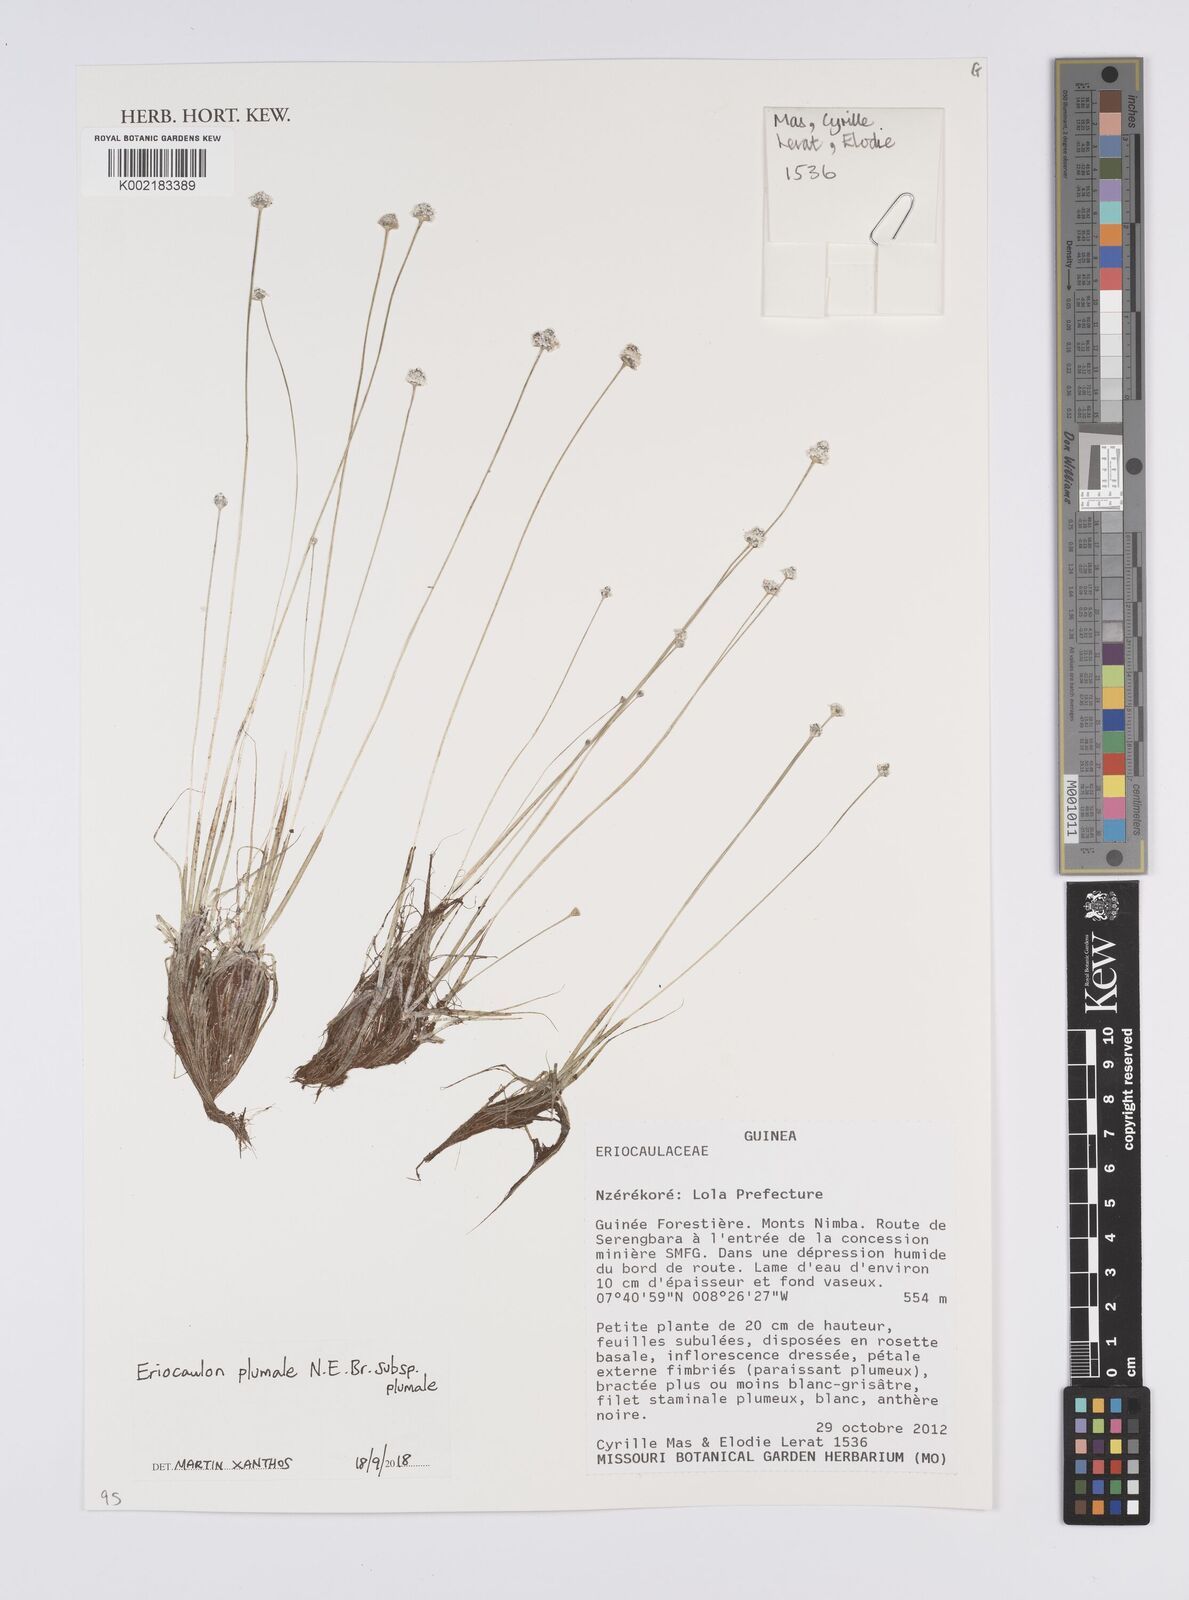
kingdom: Plantae
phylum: Tracheophyta
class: Liliopsida
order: Poales
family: Eriocaulaceae
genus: Eriocaulon
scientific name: Eriocaulon plumale
